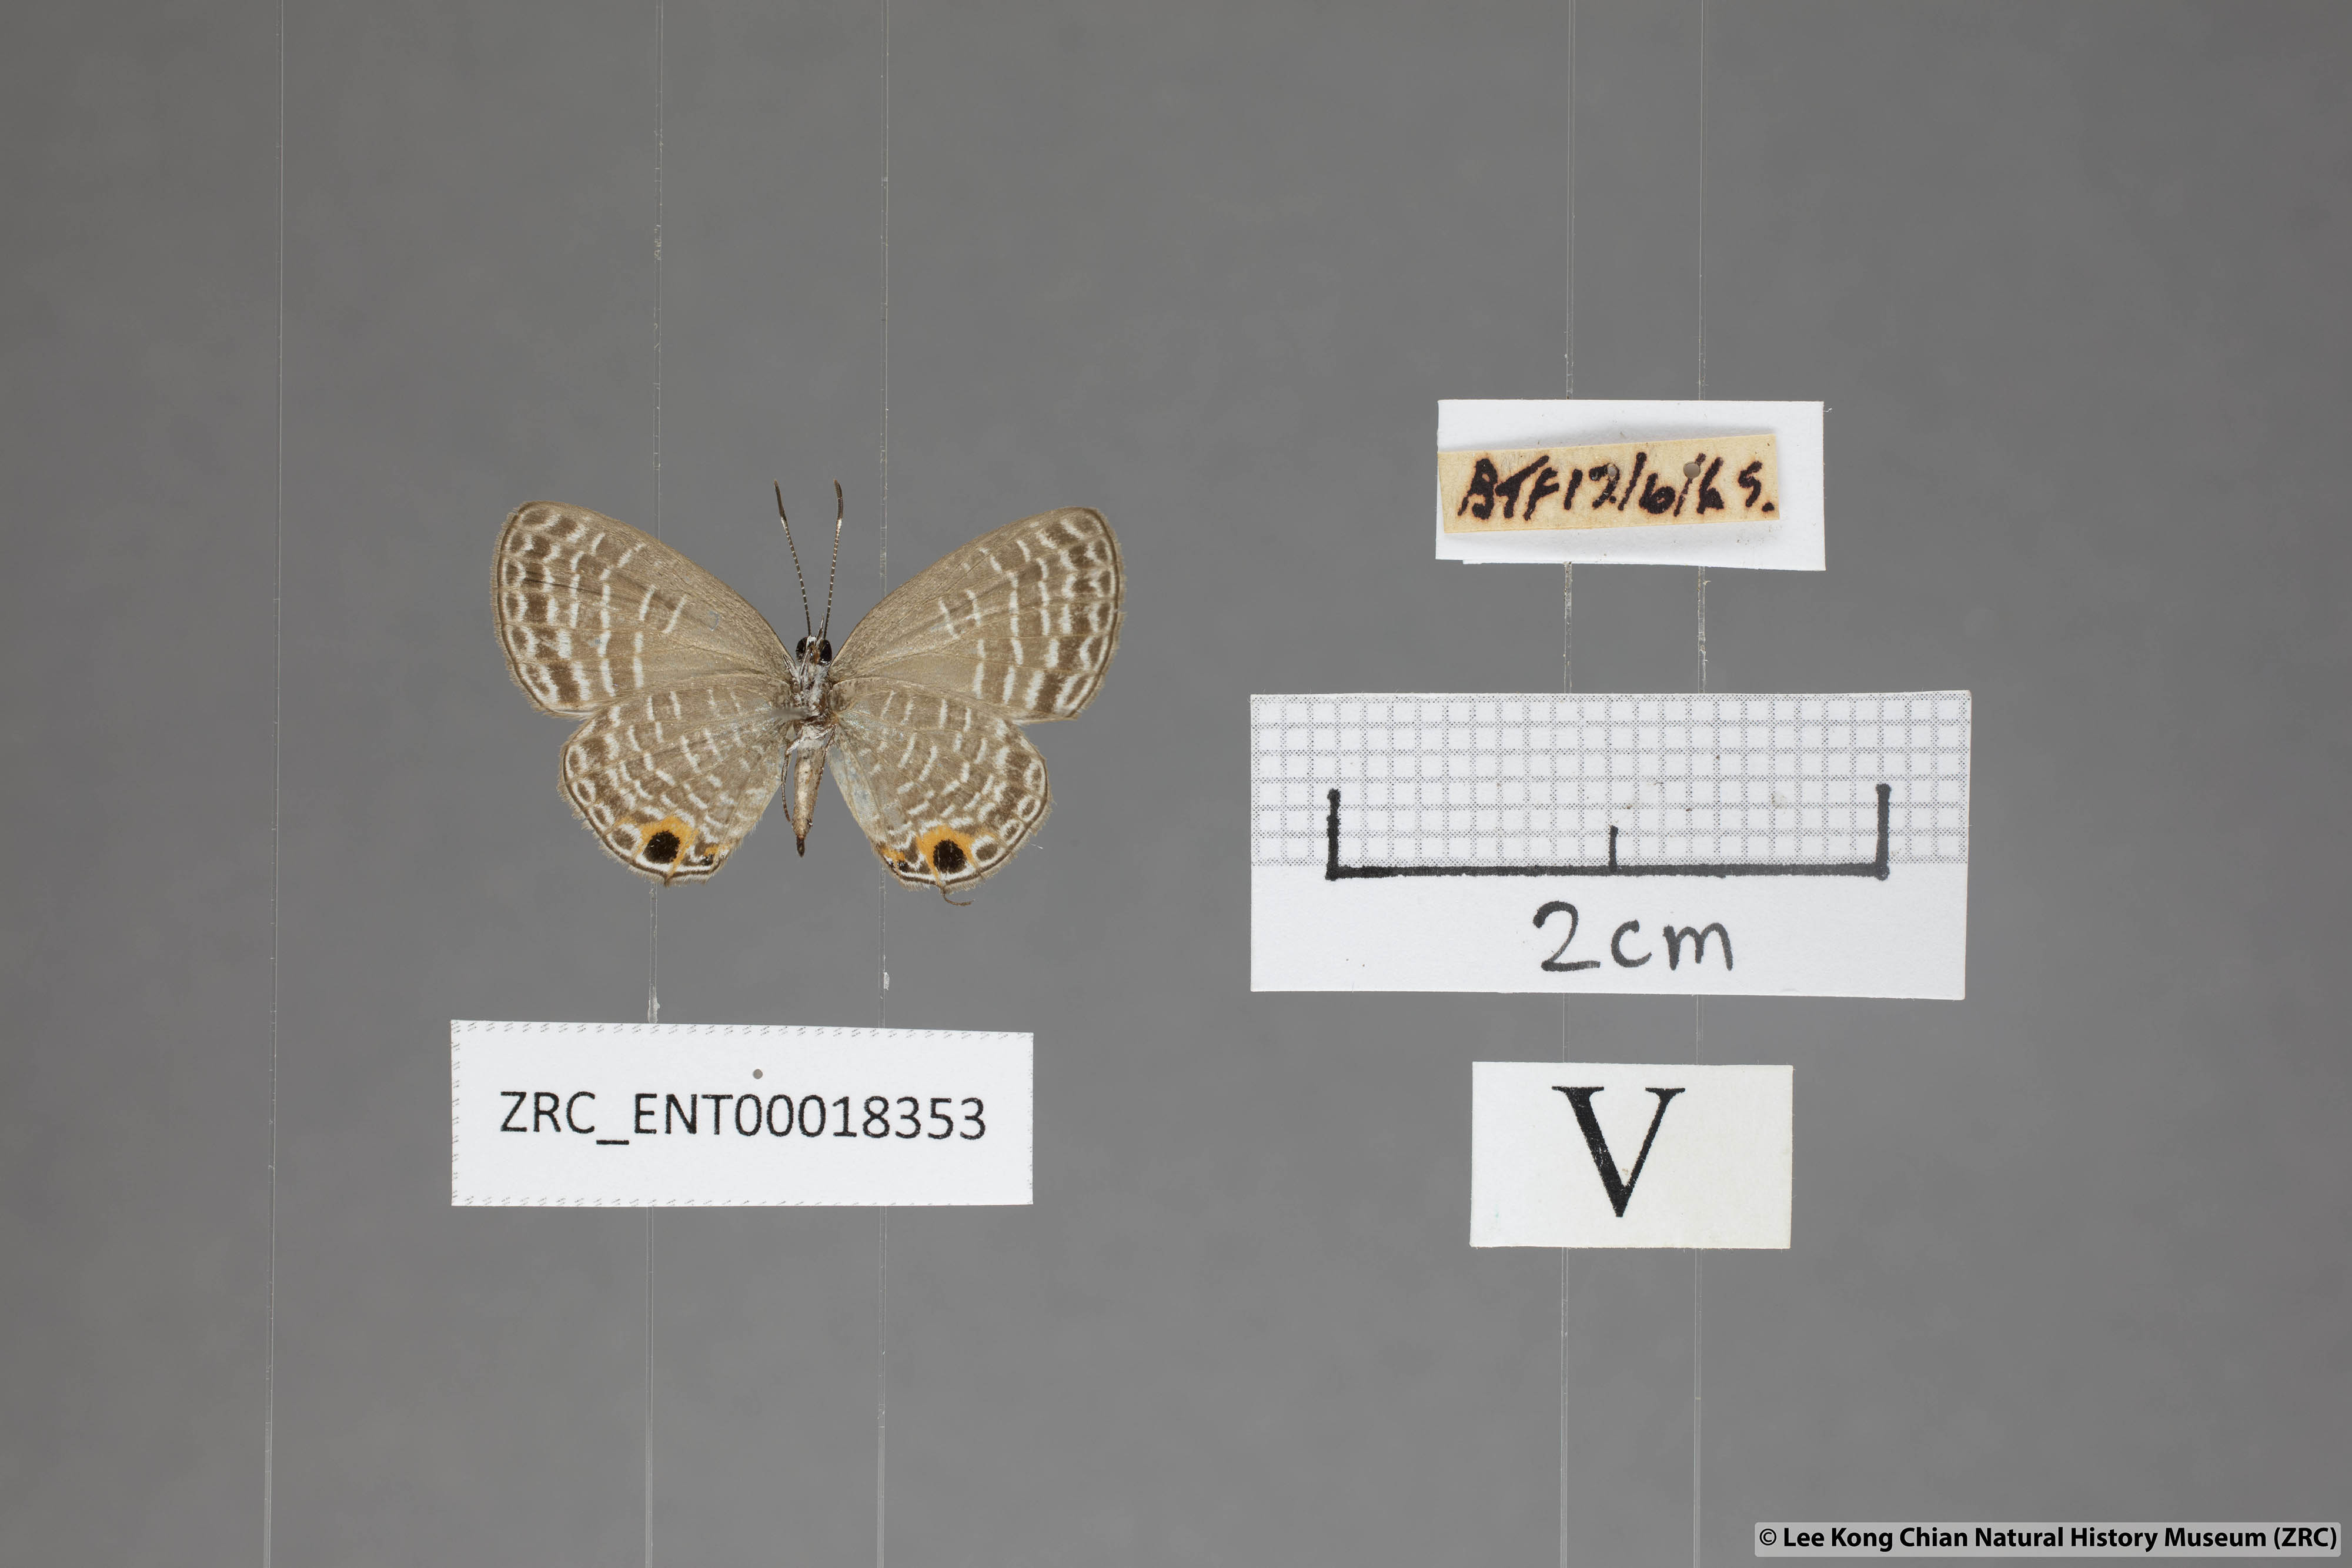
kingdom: Animalia
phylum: Arthropoda
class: Insecta
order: Lepidoptera
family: Lycaenidae
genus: Nacaduba
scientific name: Nacaduba hermus
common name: Pale four-line blue
